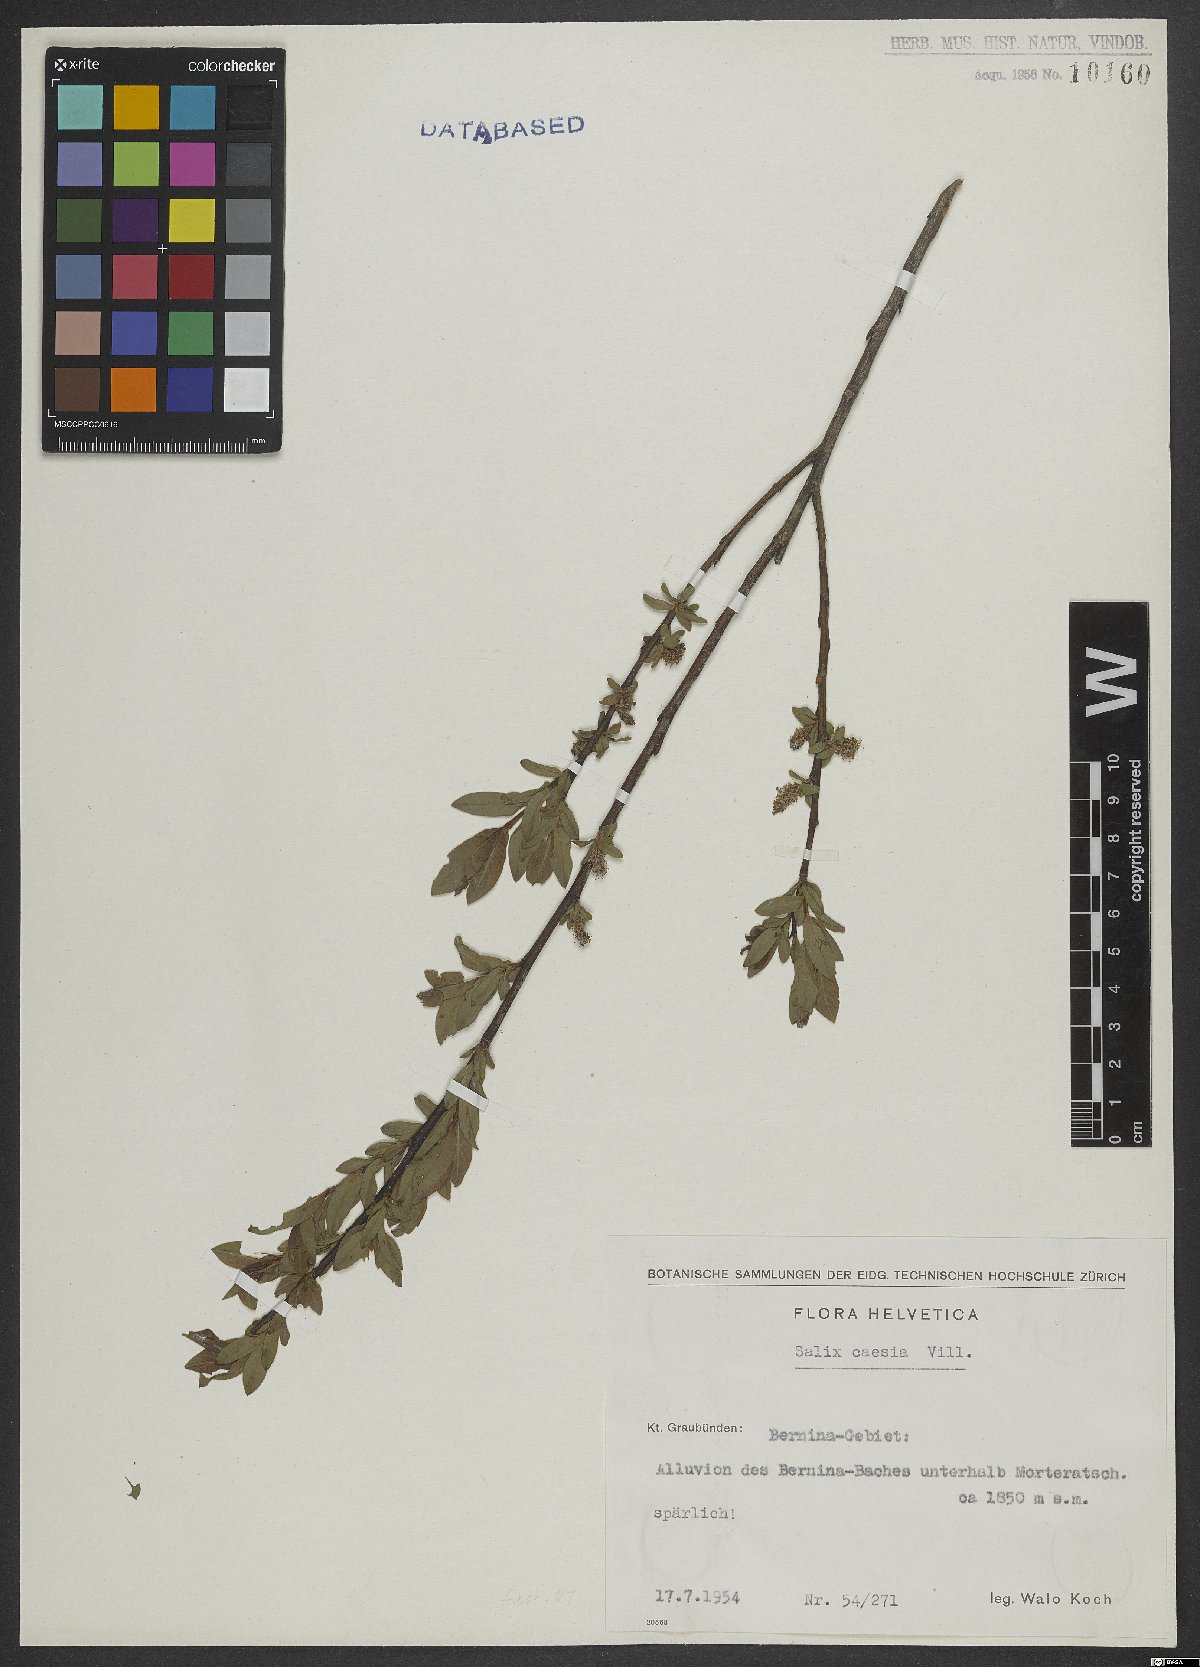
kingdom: Plantae
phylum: Tracheophyta
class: Magnoliopsida
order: Malpighiales
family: Salicaceae
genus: Salix
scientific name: Salix caesia
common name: Blue willow
